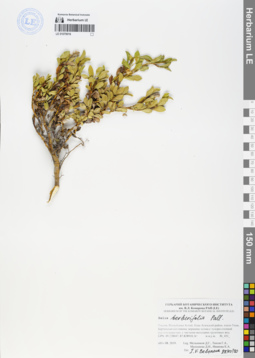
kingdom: Plantae
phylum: Tracheophyta
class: Magnoliopsida
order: Malpighiales
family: Salicaceae
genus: Salix
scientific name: Salix berberifolia
